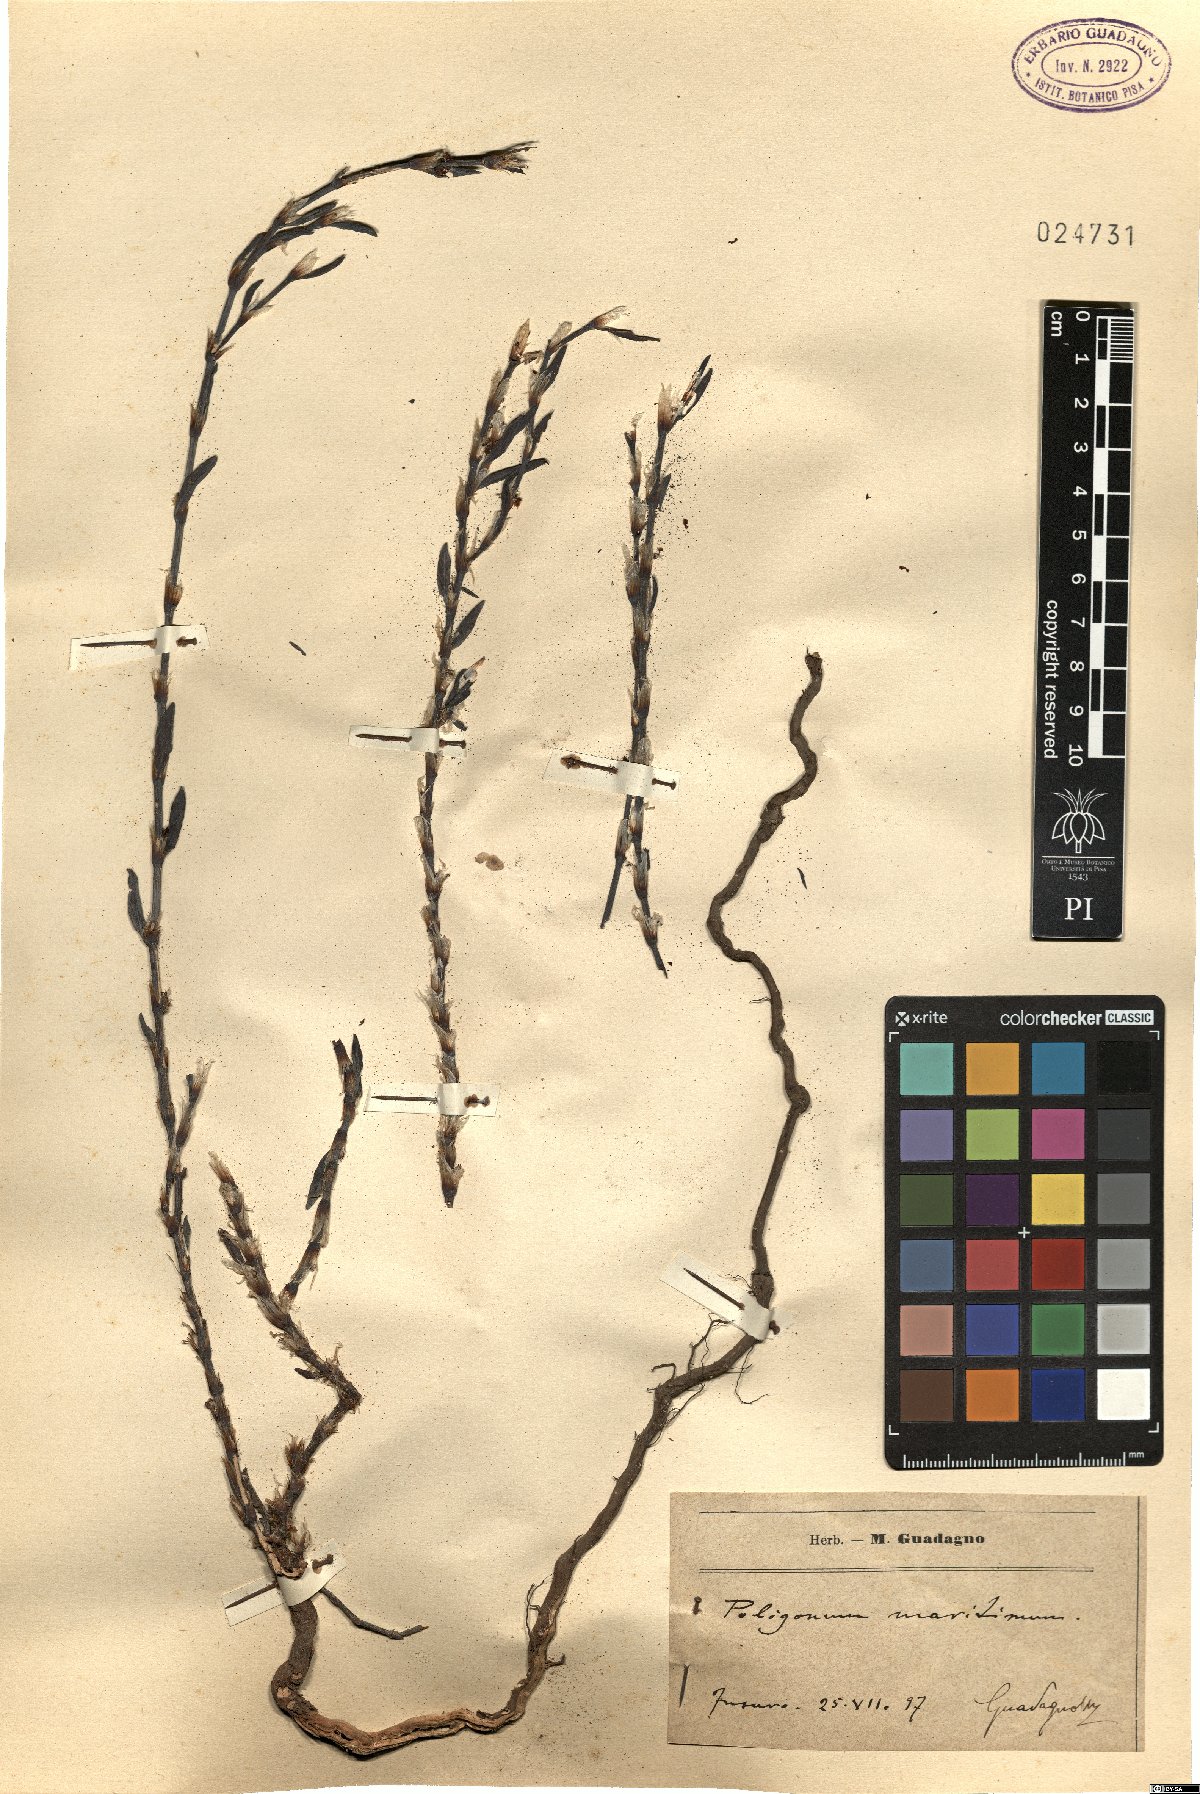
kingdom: Plantae
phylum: Tracheophyta
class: Magnoliopsida
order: Caryophyllales
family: Polygonaceae
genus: Polygonum
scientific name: Polygonum maritimum
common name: Sea knotgrass
